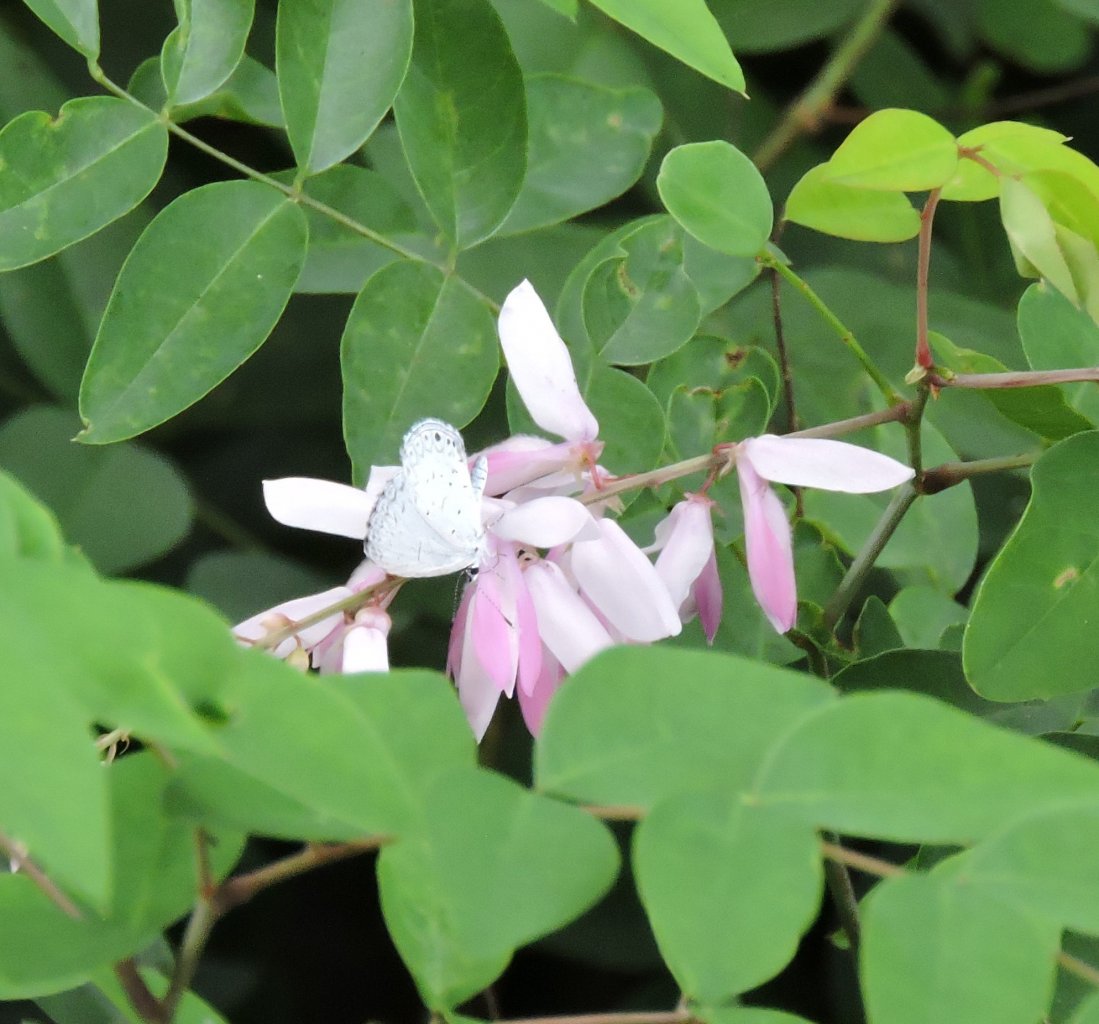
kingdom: Animalia
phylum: Arthropoda
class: Insecta
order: Lepidoptera
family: Lycaenidae
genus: Cyaniris
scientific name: Cyaniris neglecta
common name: Summer Azure
